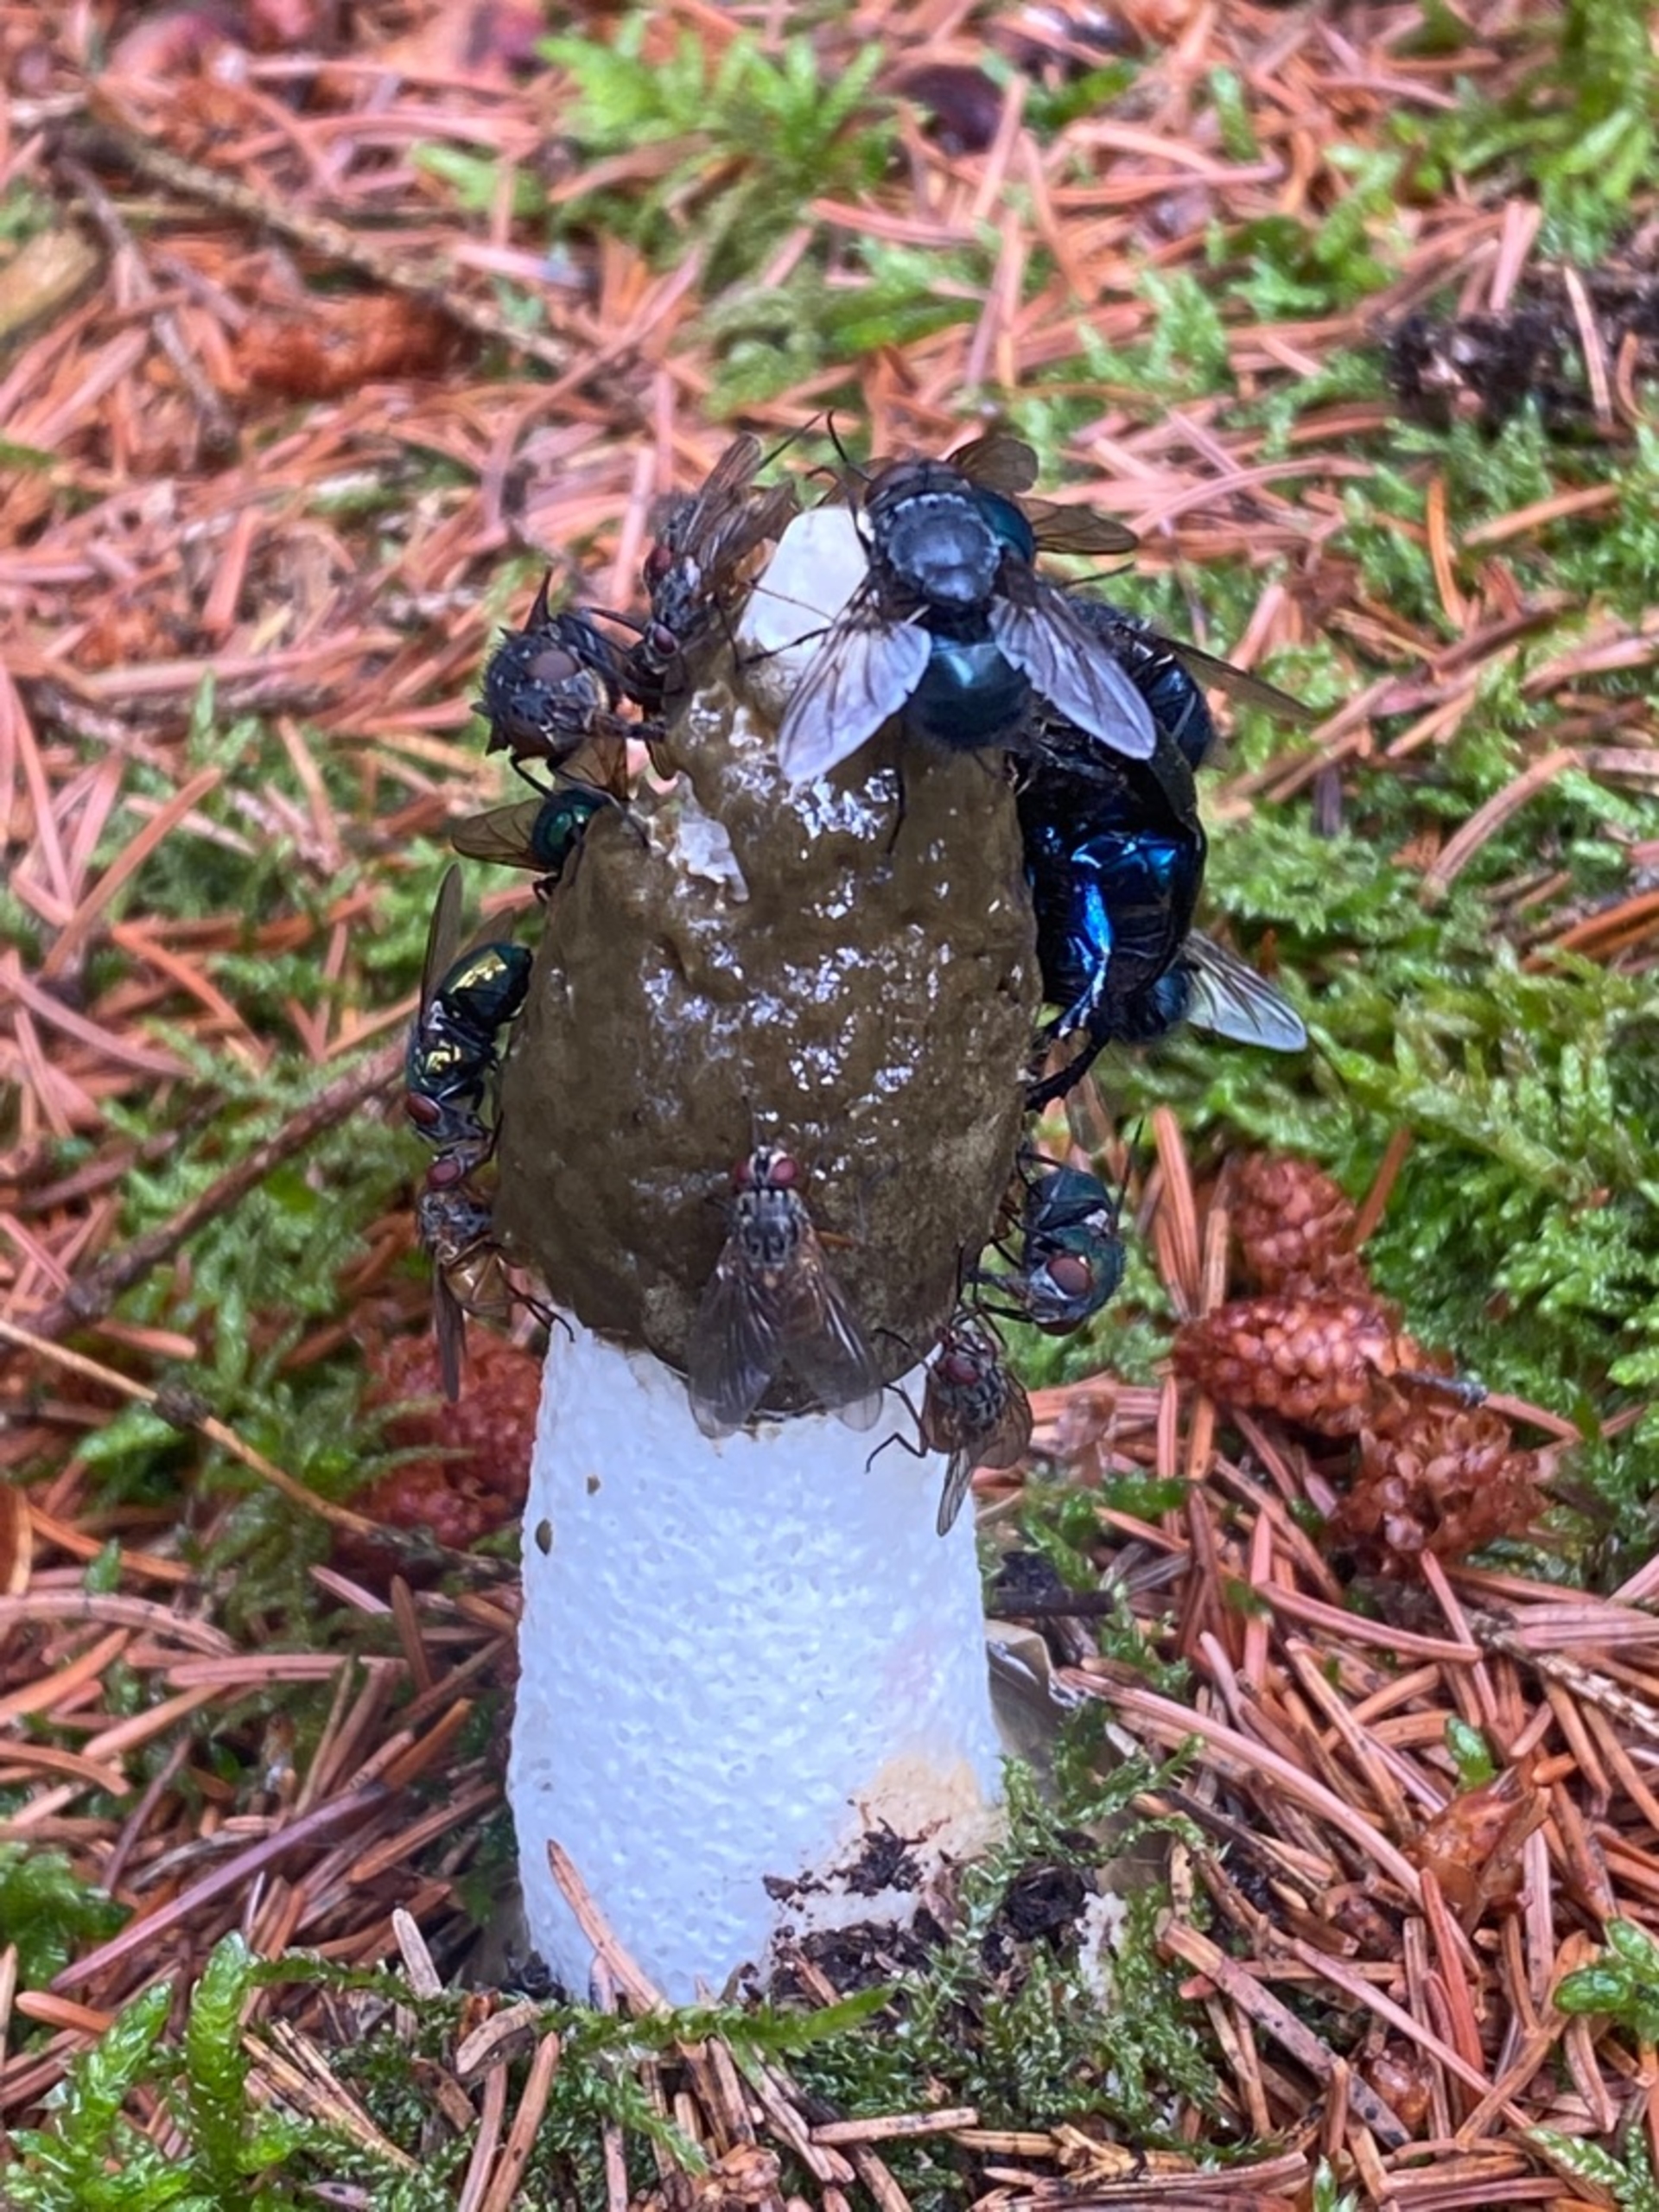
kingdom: Fungi
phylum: Basidiomycota
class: Agaricomycetes
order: Phallales
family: Phallaceae
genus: Phallus
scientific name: Phallus impudicus
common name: Almindelig stinksvamp
